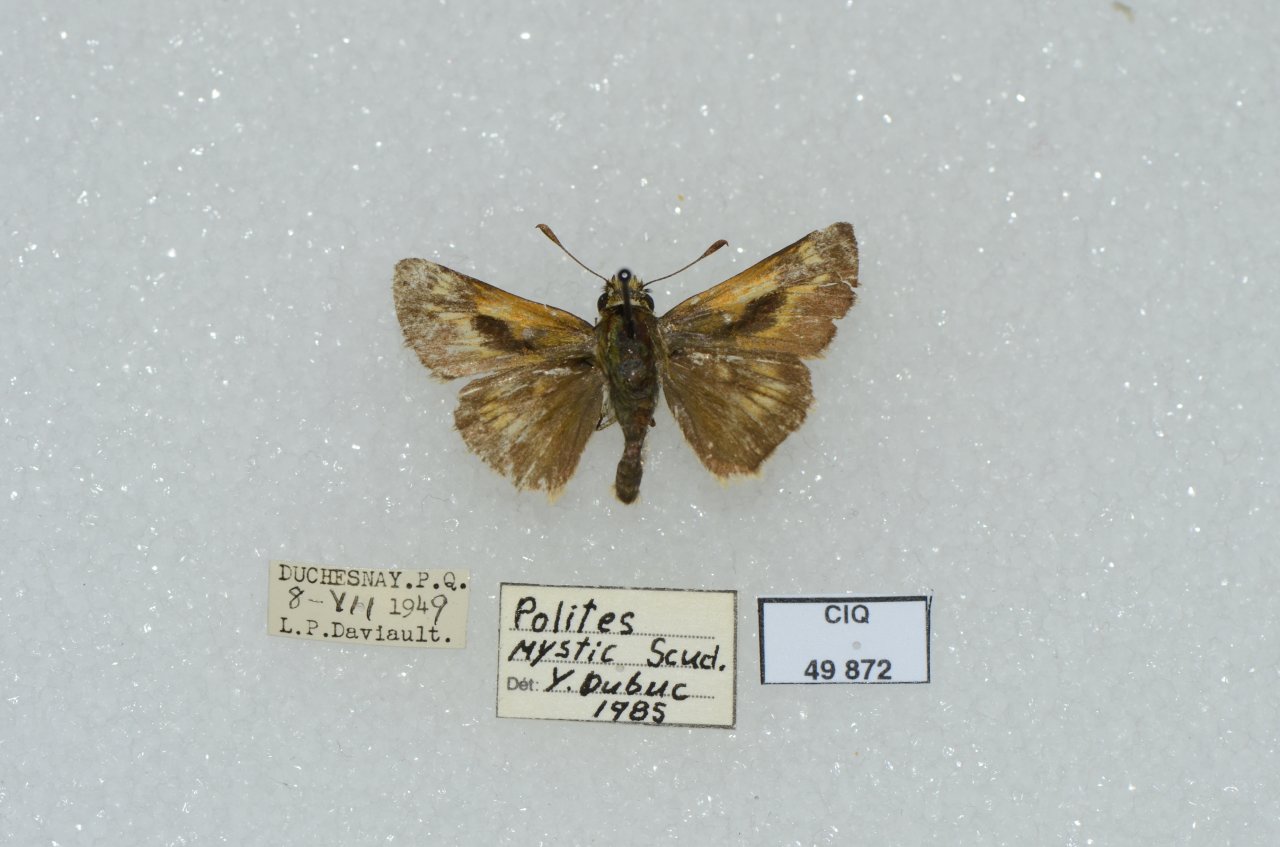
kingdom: Animalia
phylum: Arthropoda
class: Insecta
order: Lepidoptera
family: Hesperiidae
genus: Polites
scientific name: Polites
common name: Long Dash Skipper
